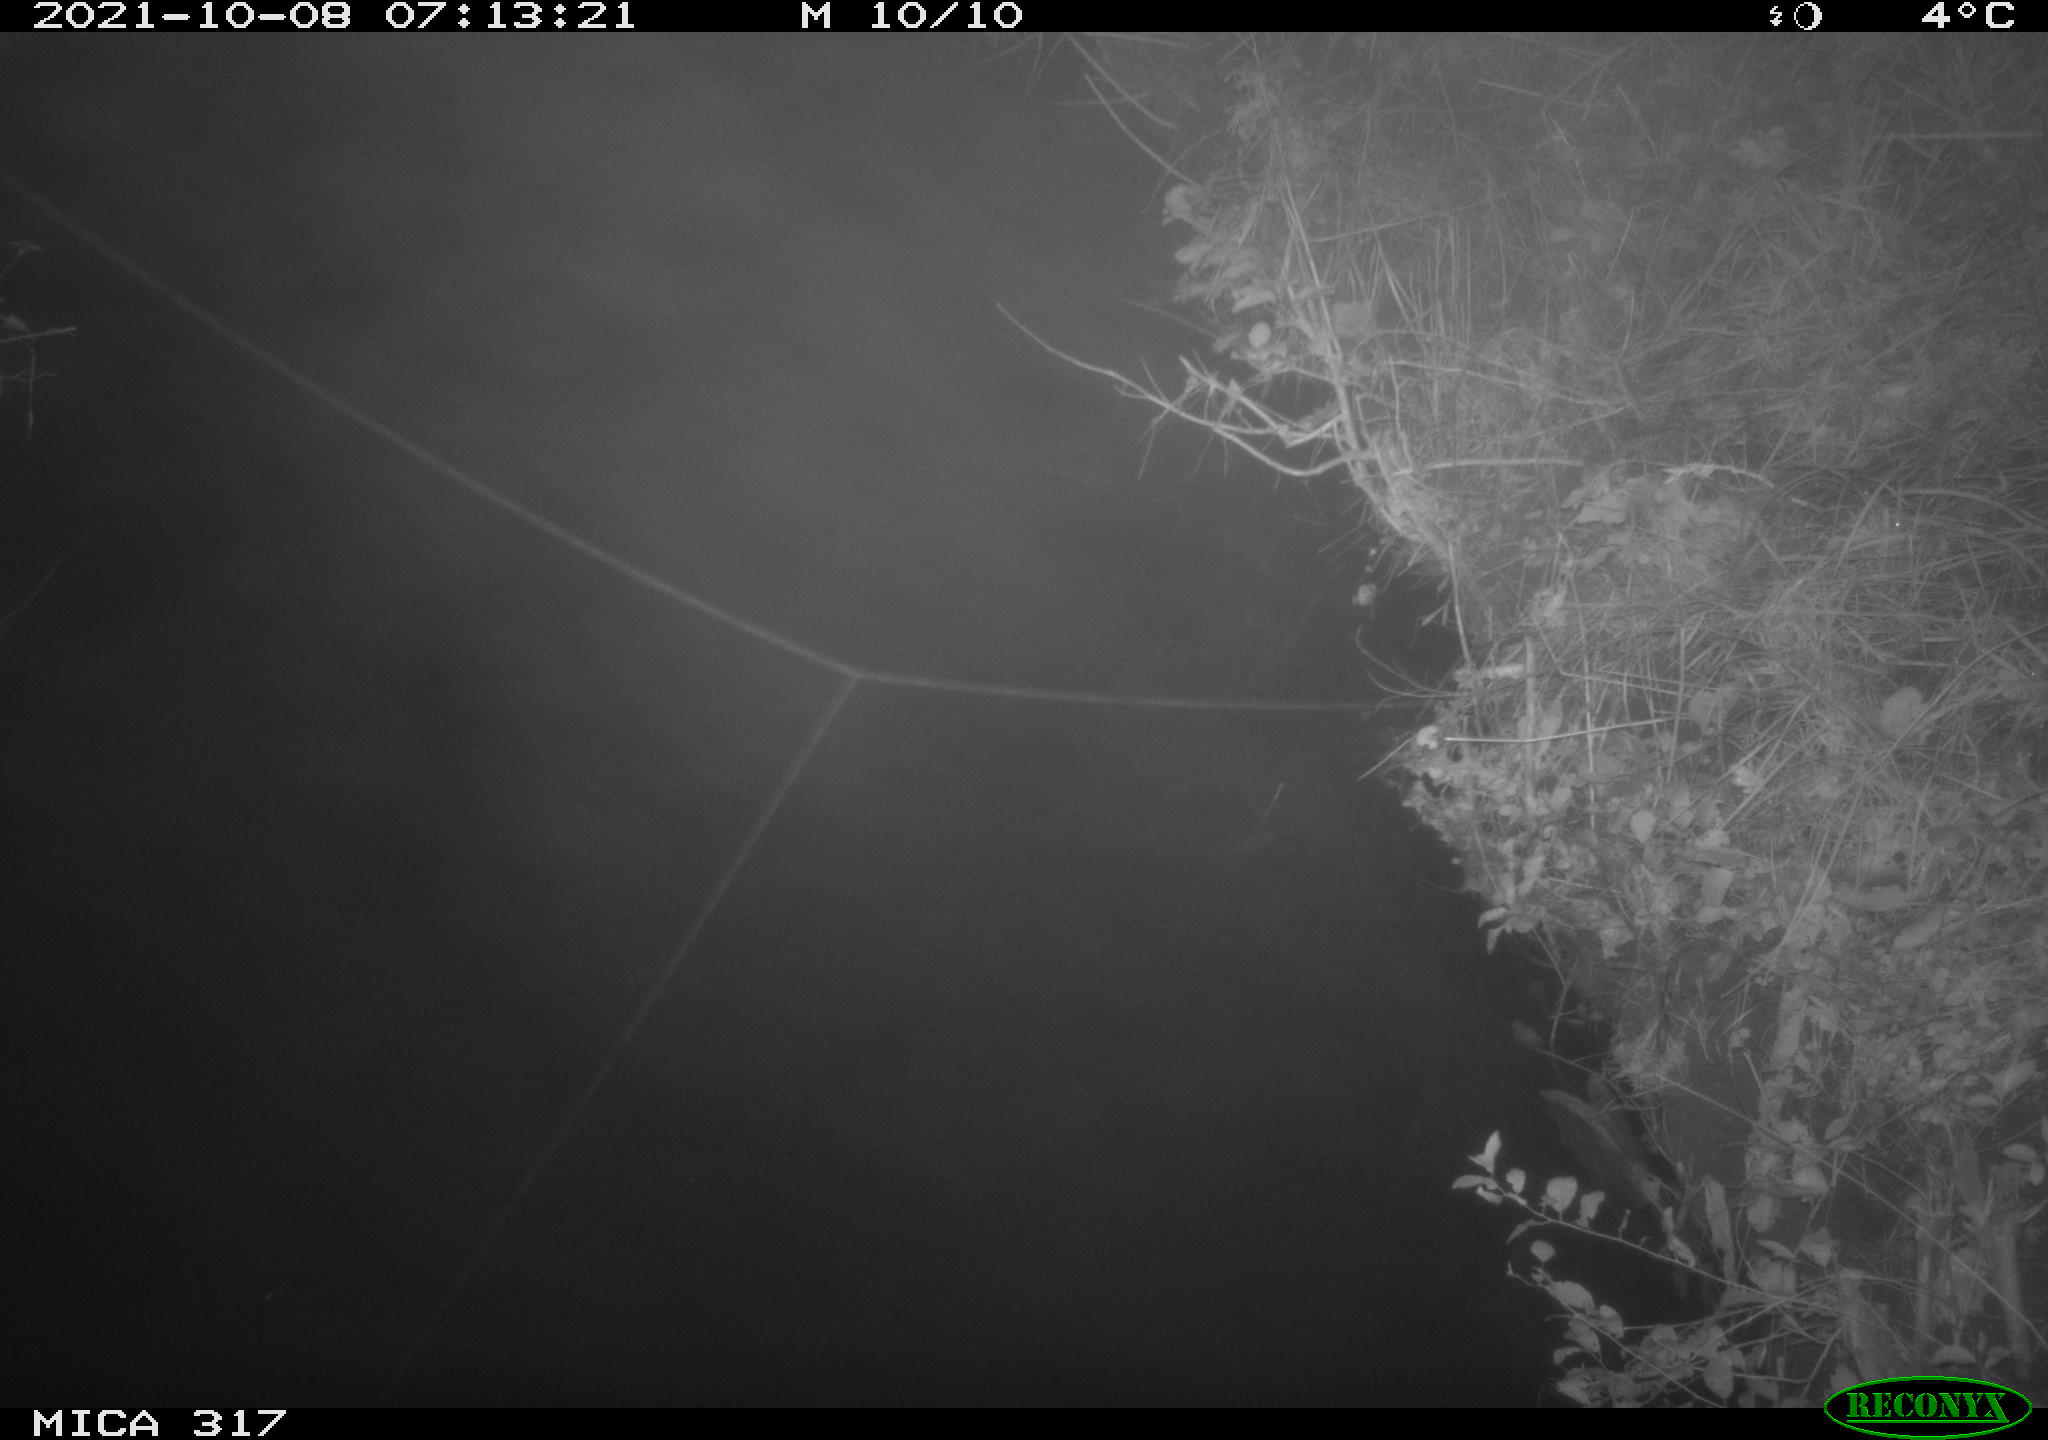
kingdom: Animalia
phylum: Chordata
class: Aves
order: Anseriformes
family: Anatidae
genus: Anas
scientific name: Anas platyrhynchos
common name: Mallard
